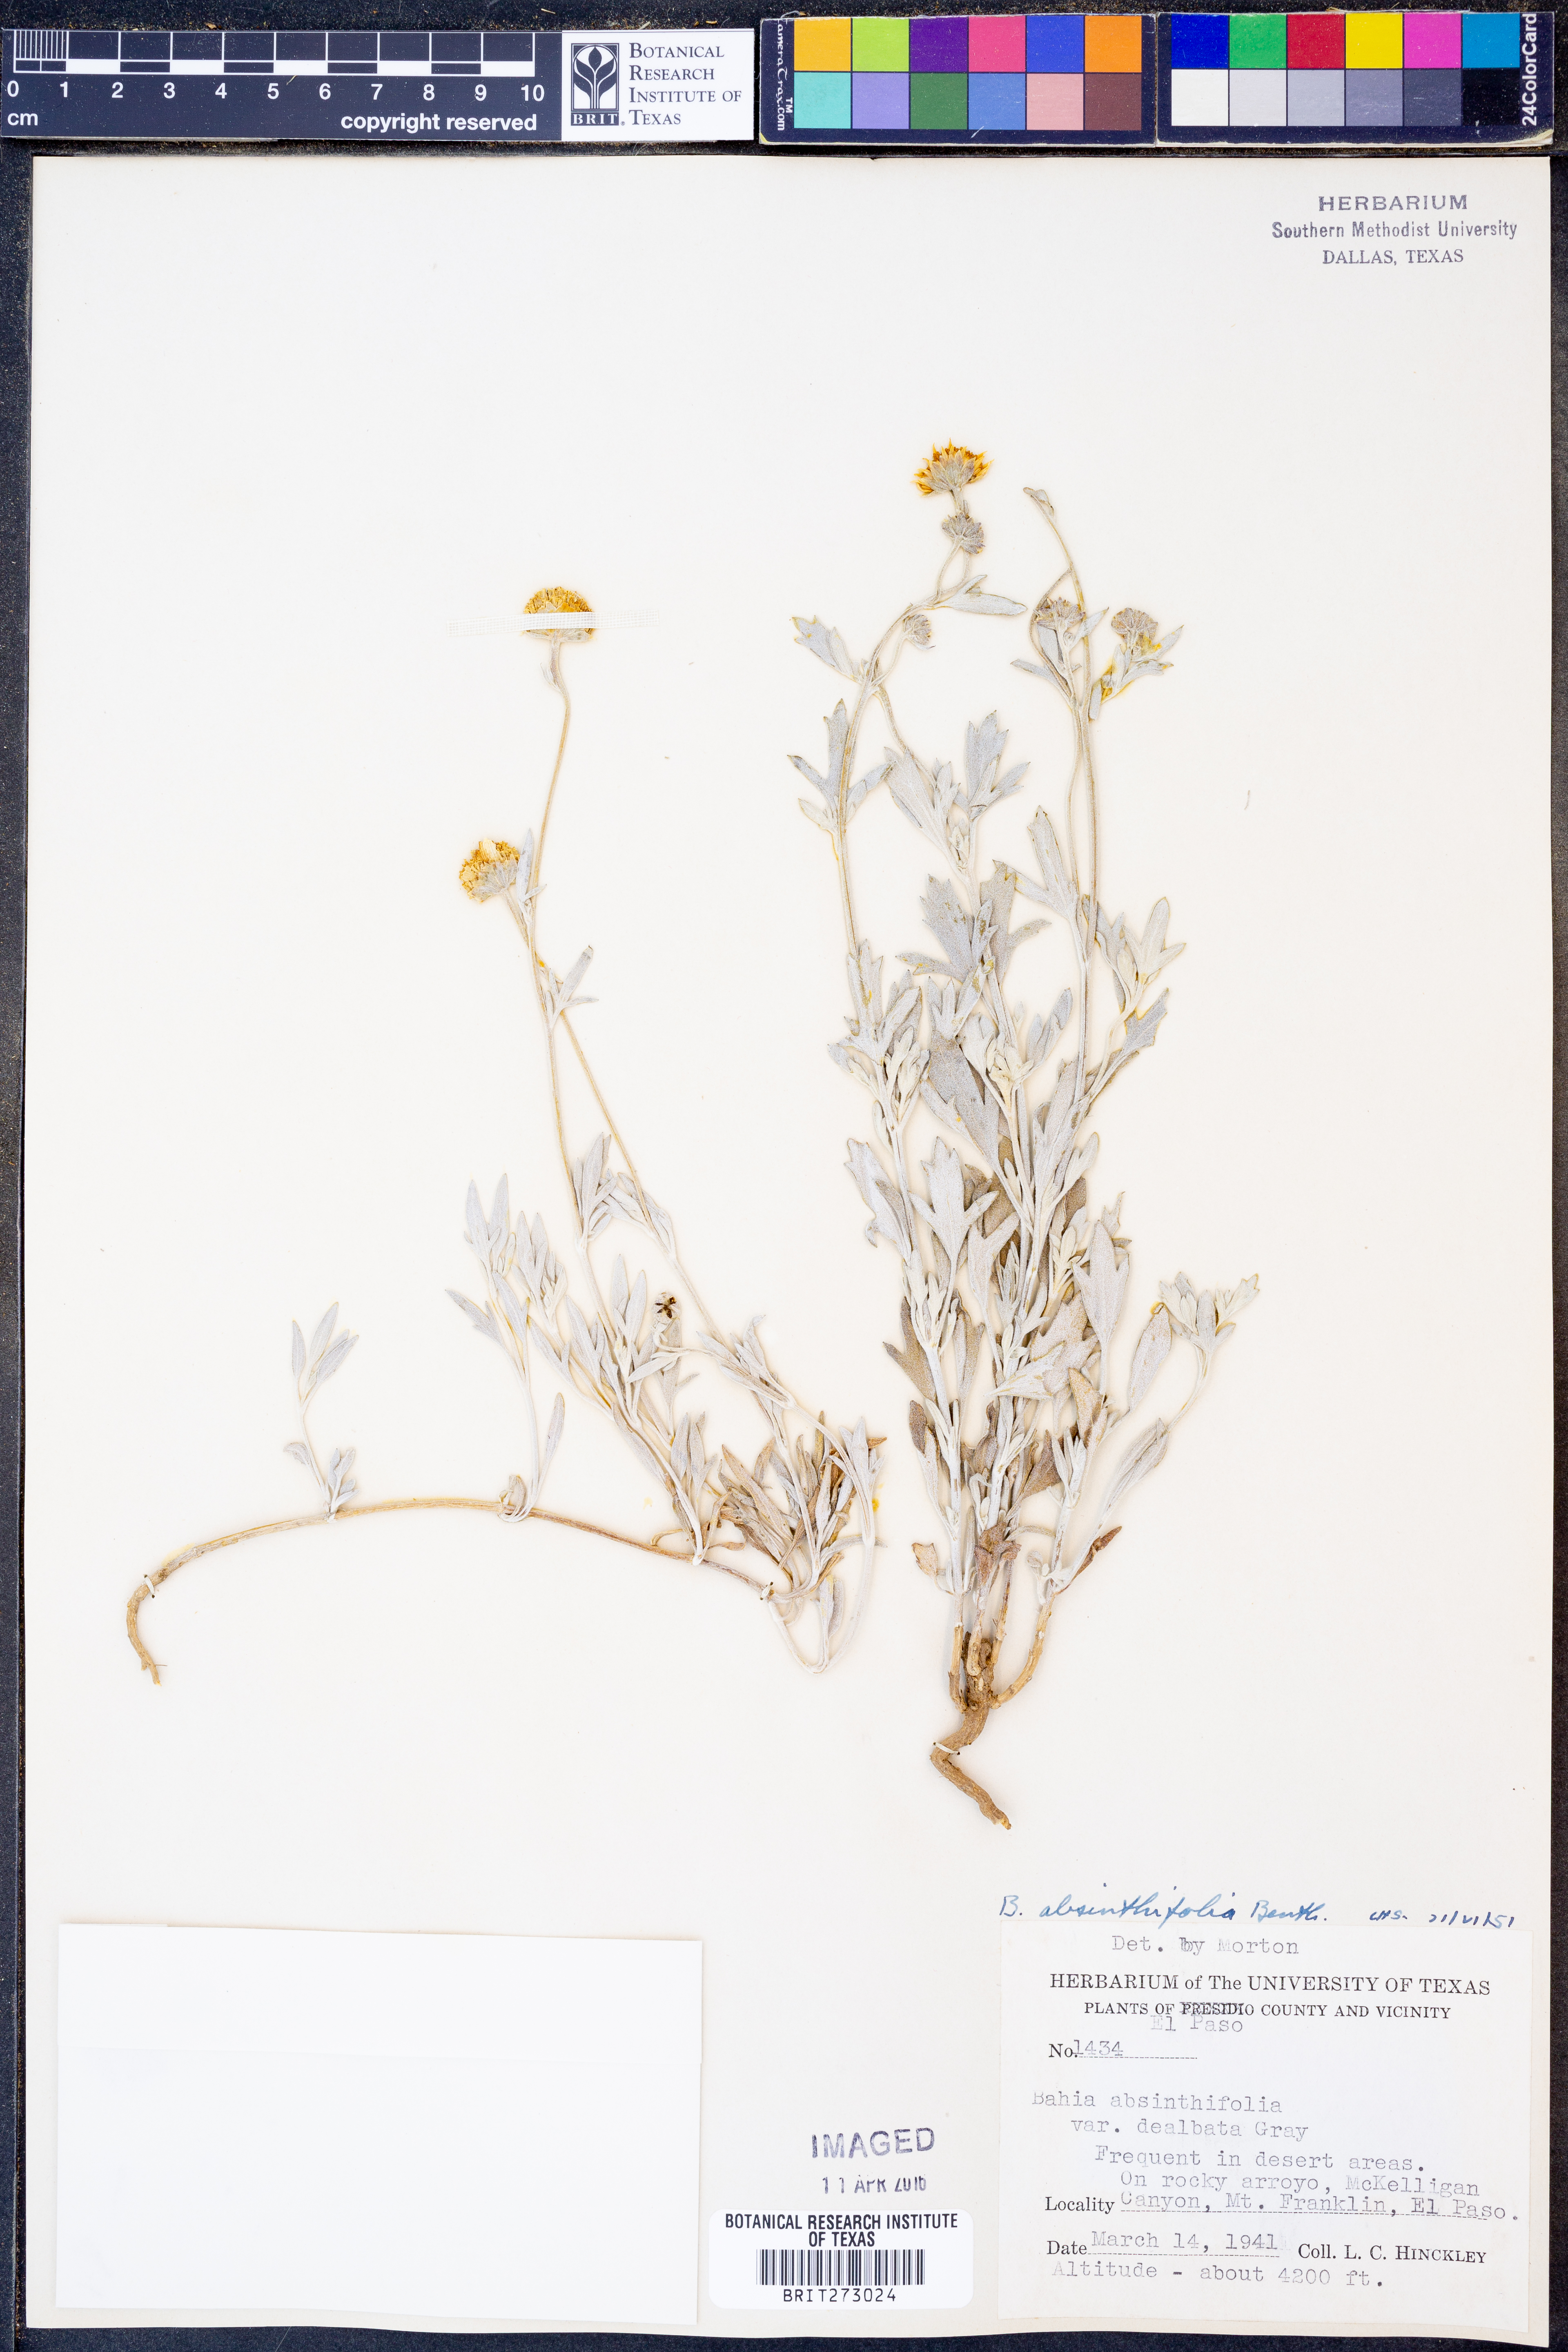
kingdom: Plantae
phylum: Tracheophyta
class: Magnoliopsida
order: Asterales
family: Asteraceae
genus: Picradeniopsis
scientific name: Picradeniopsis absinthifolia
